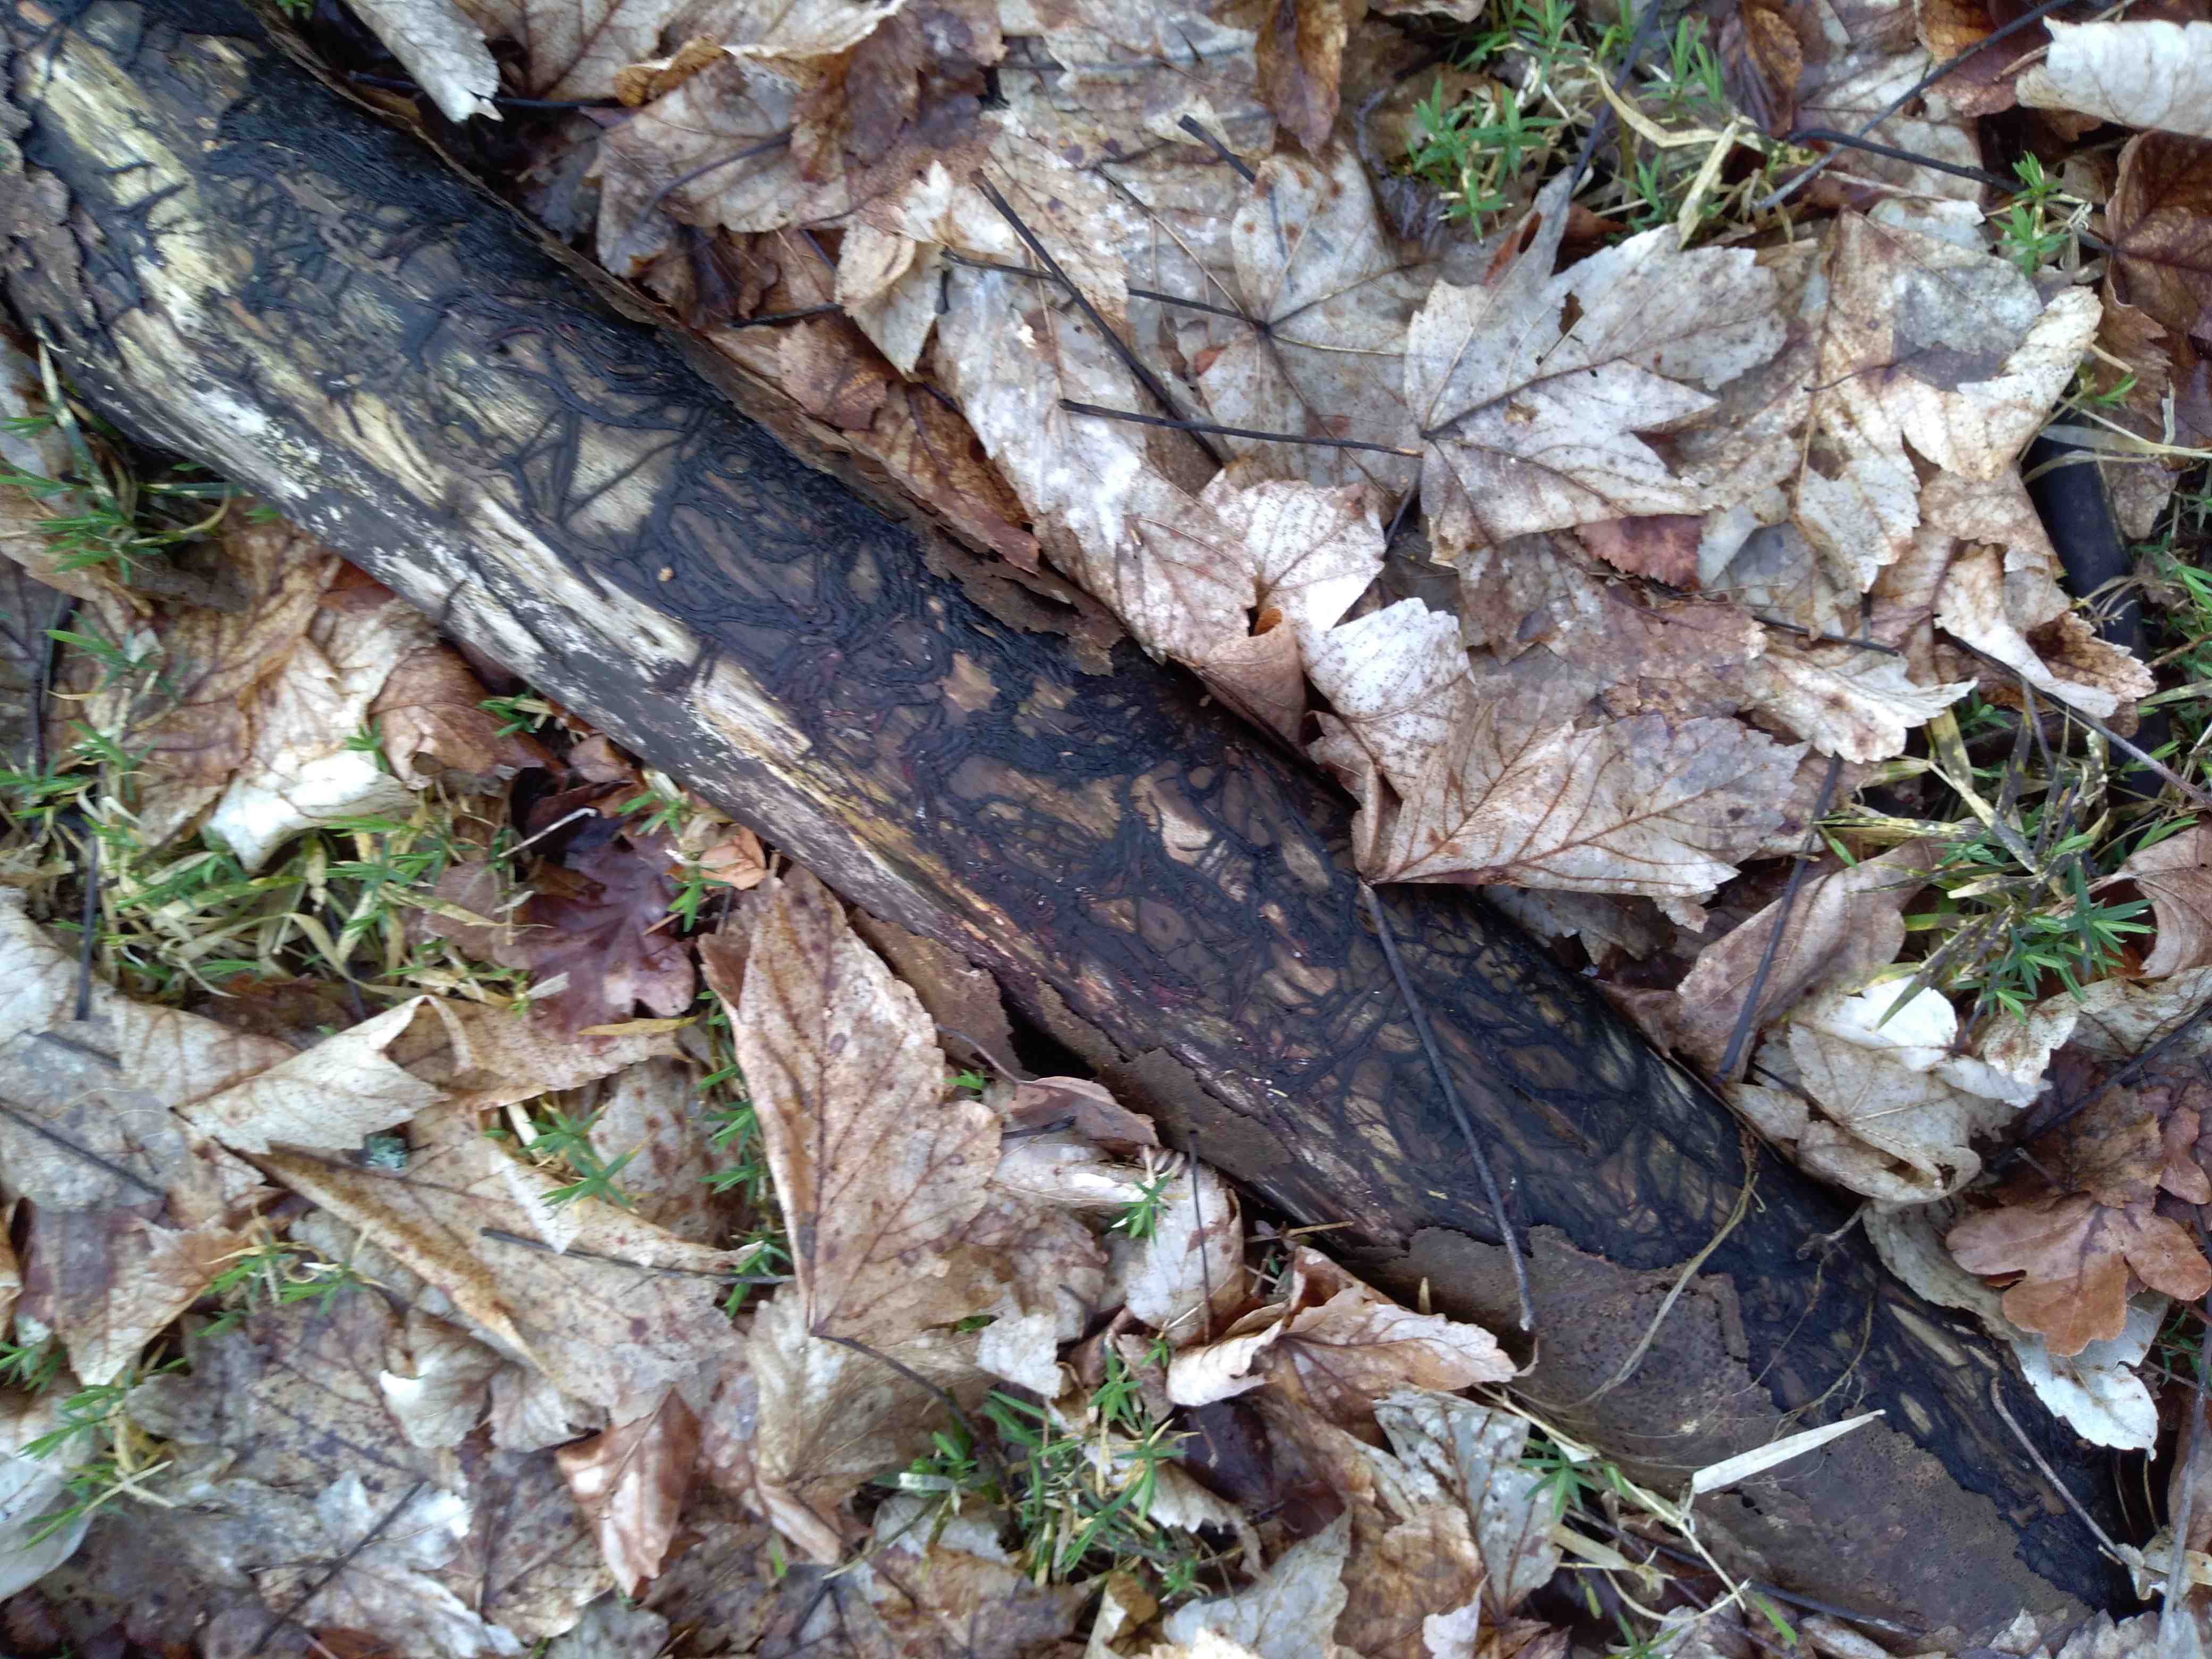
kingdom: Fungi
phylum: Basidiomycota
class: Agaricomycetes
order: Agaricales
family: Physalacriaceae
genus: Armillaria
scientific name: Armillaria
